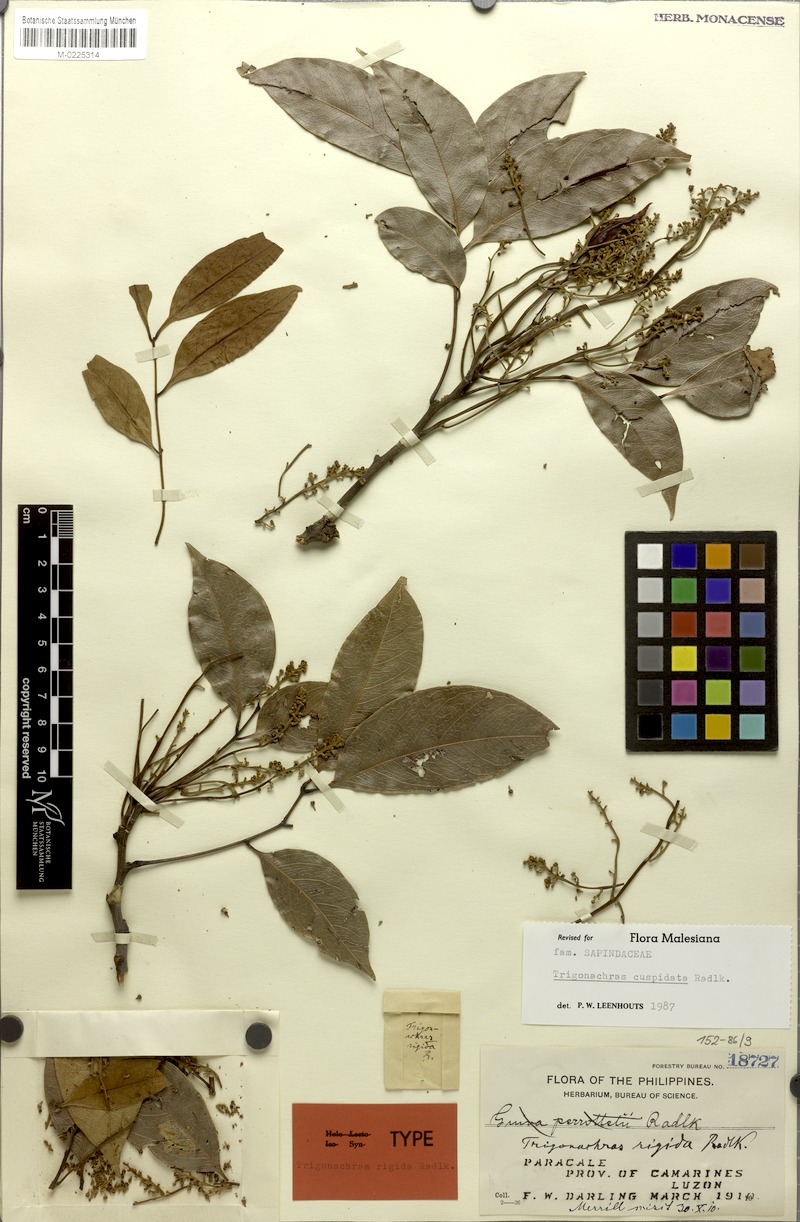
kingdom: Plantae
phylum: Tracheophyta
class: Magnoliopsida
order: Sapindales
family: Sapindaceae
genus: Trigonachras
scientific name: Trigonachras cultrata
